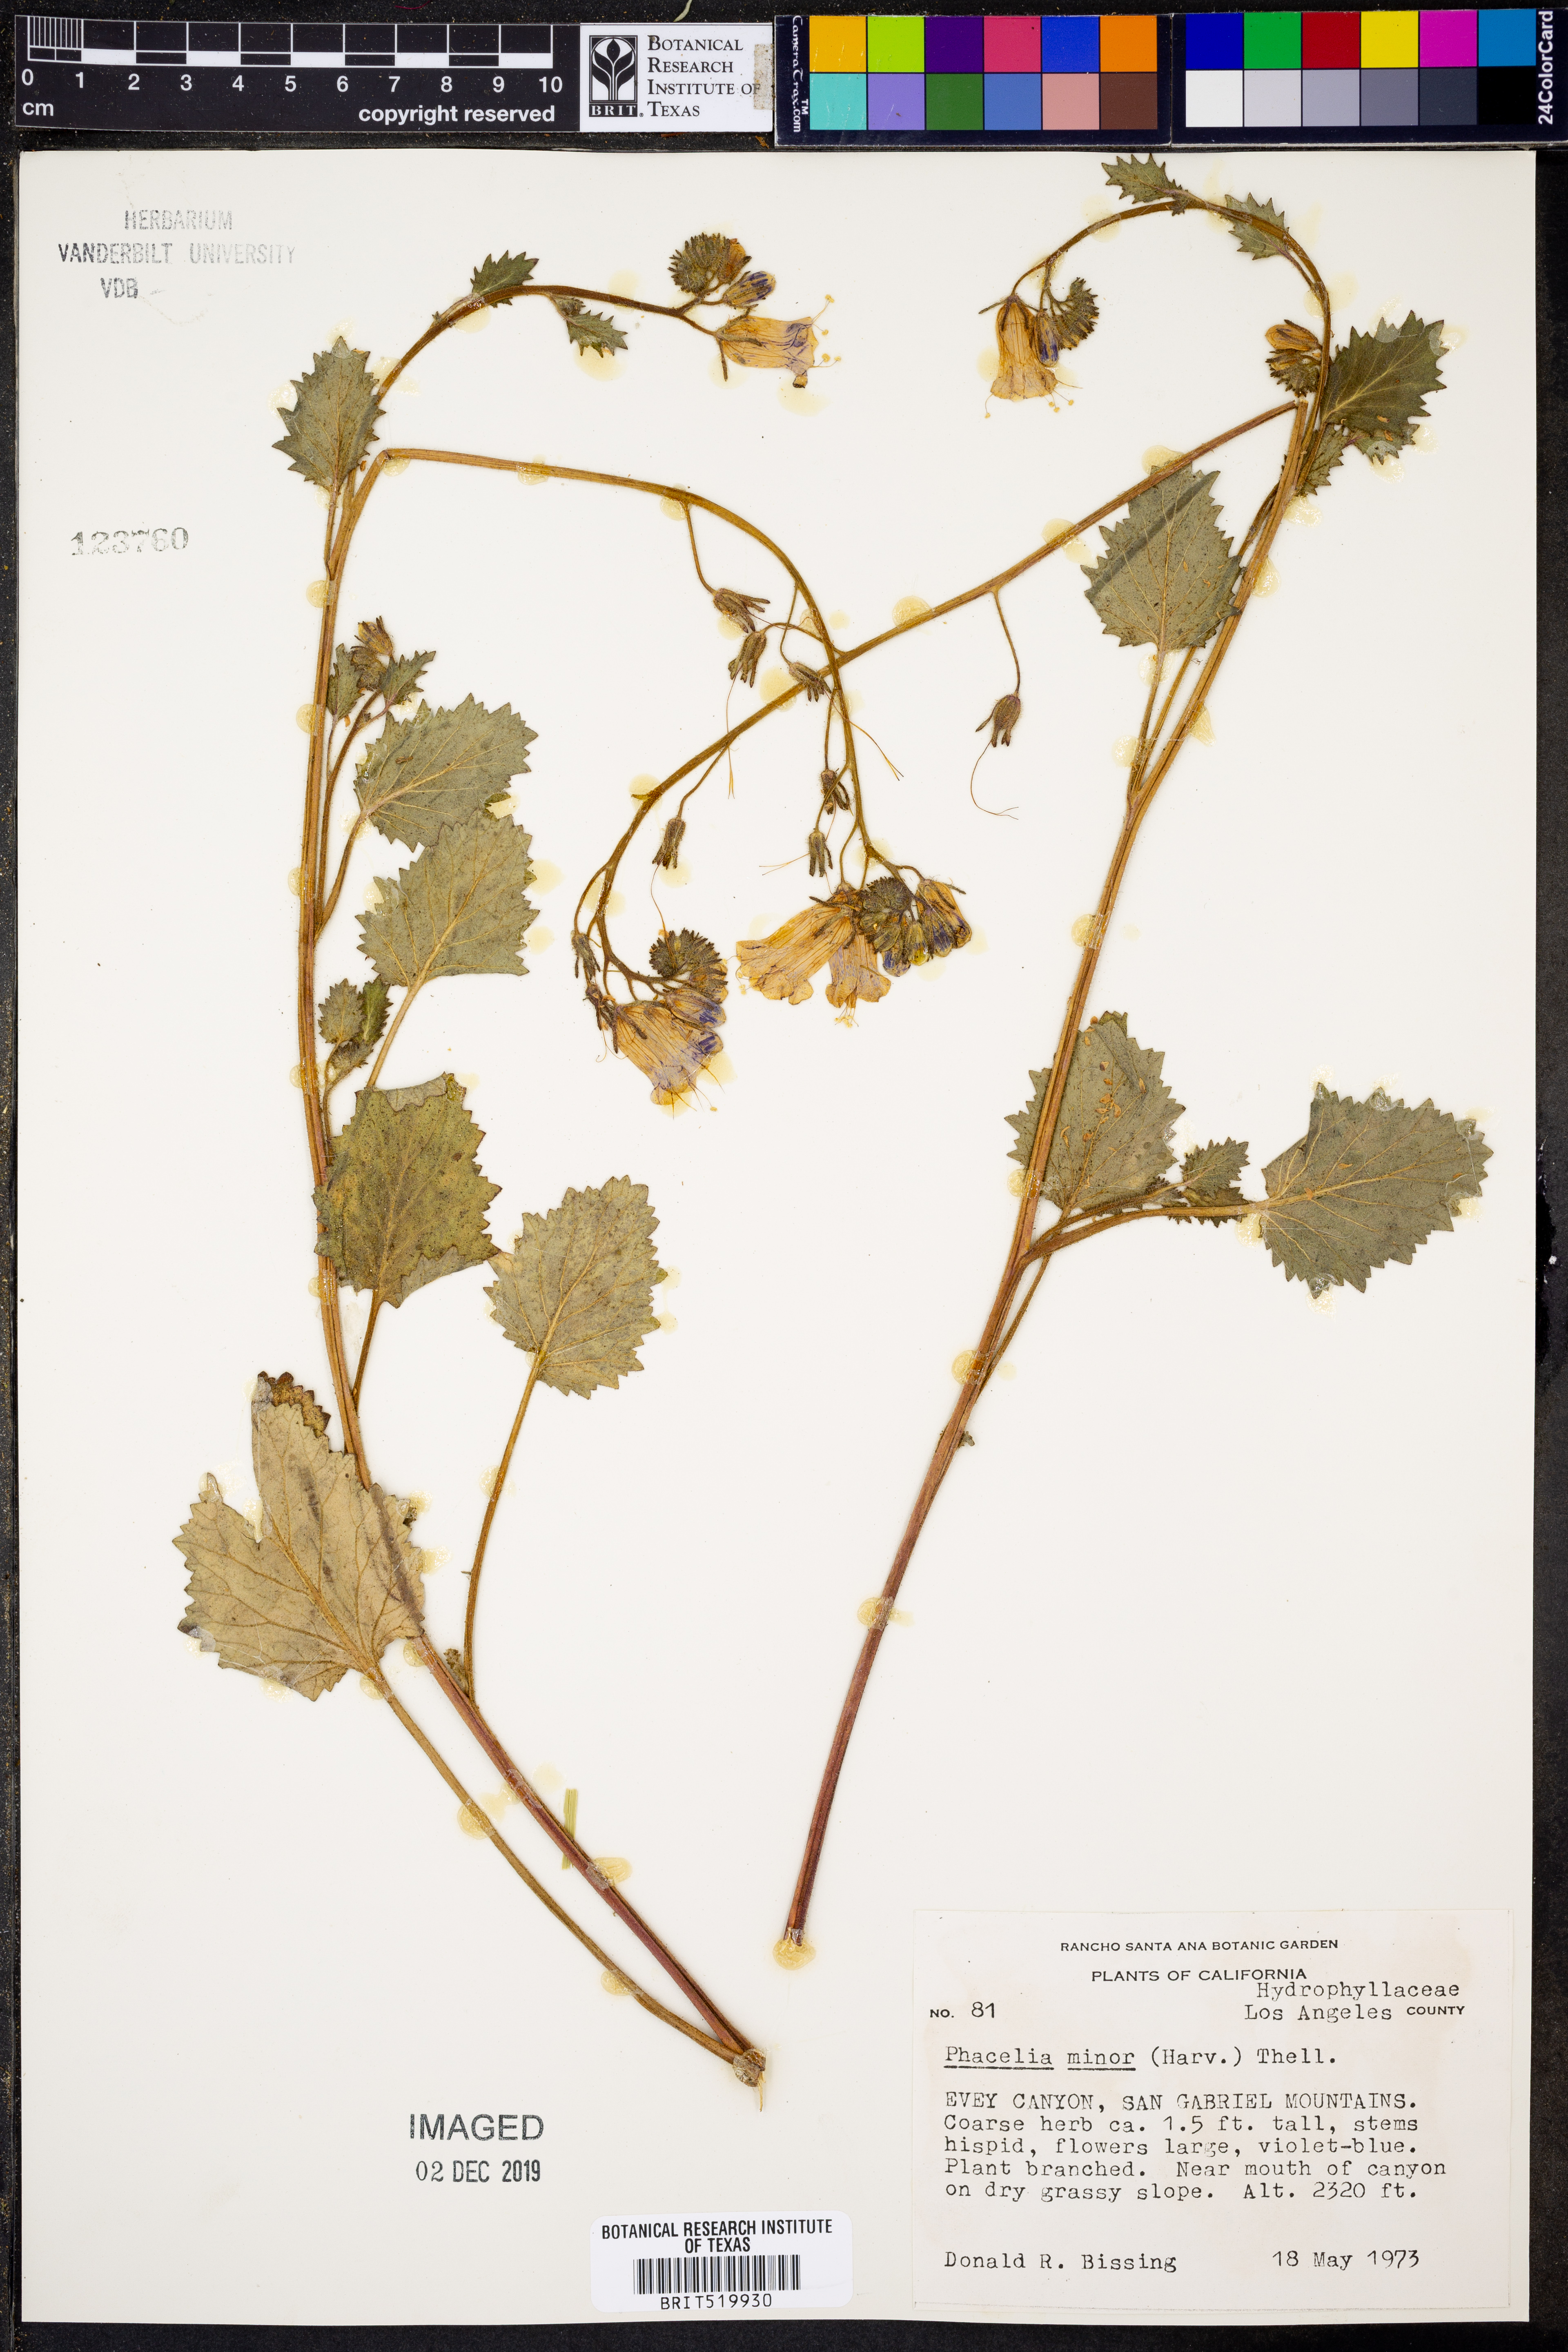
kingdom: Plantae
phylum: Tracheophyta
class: Magnoliopsida
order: Boraginales
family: Hydrophyllaceae
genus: Phacelia
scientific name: Phacelia minor
